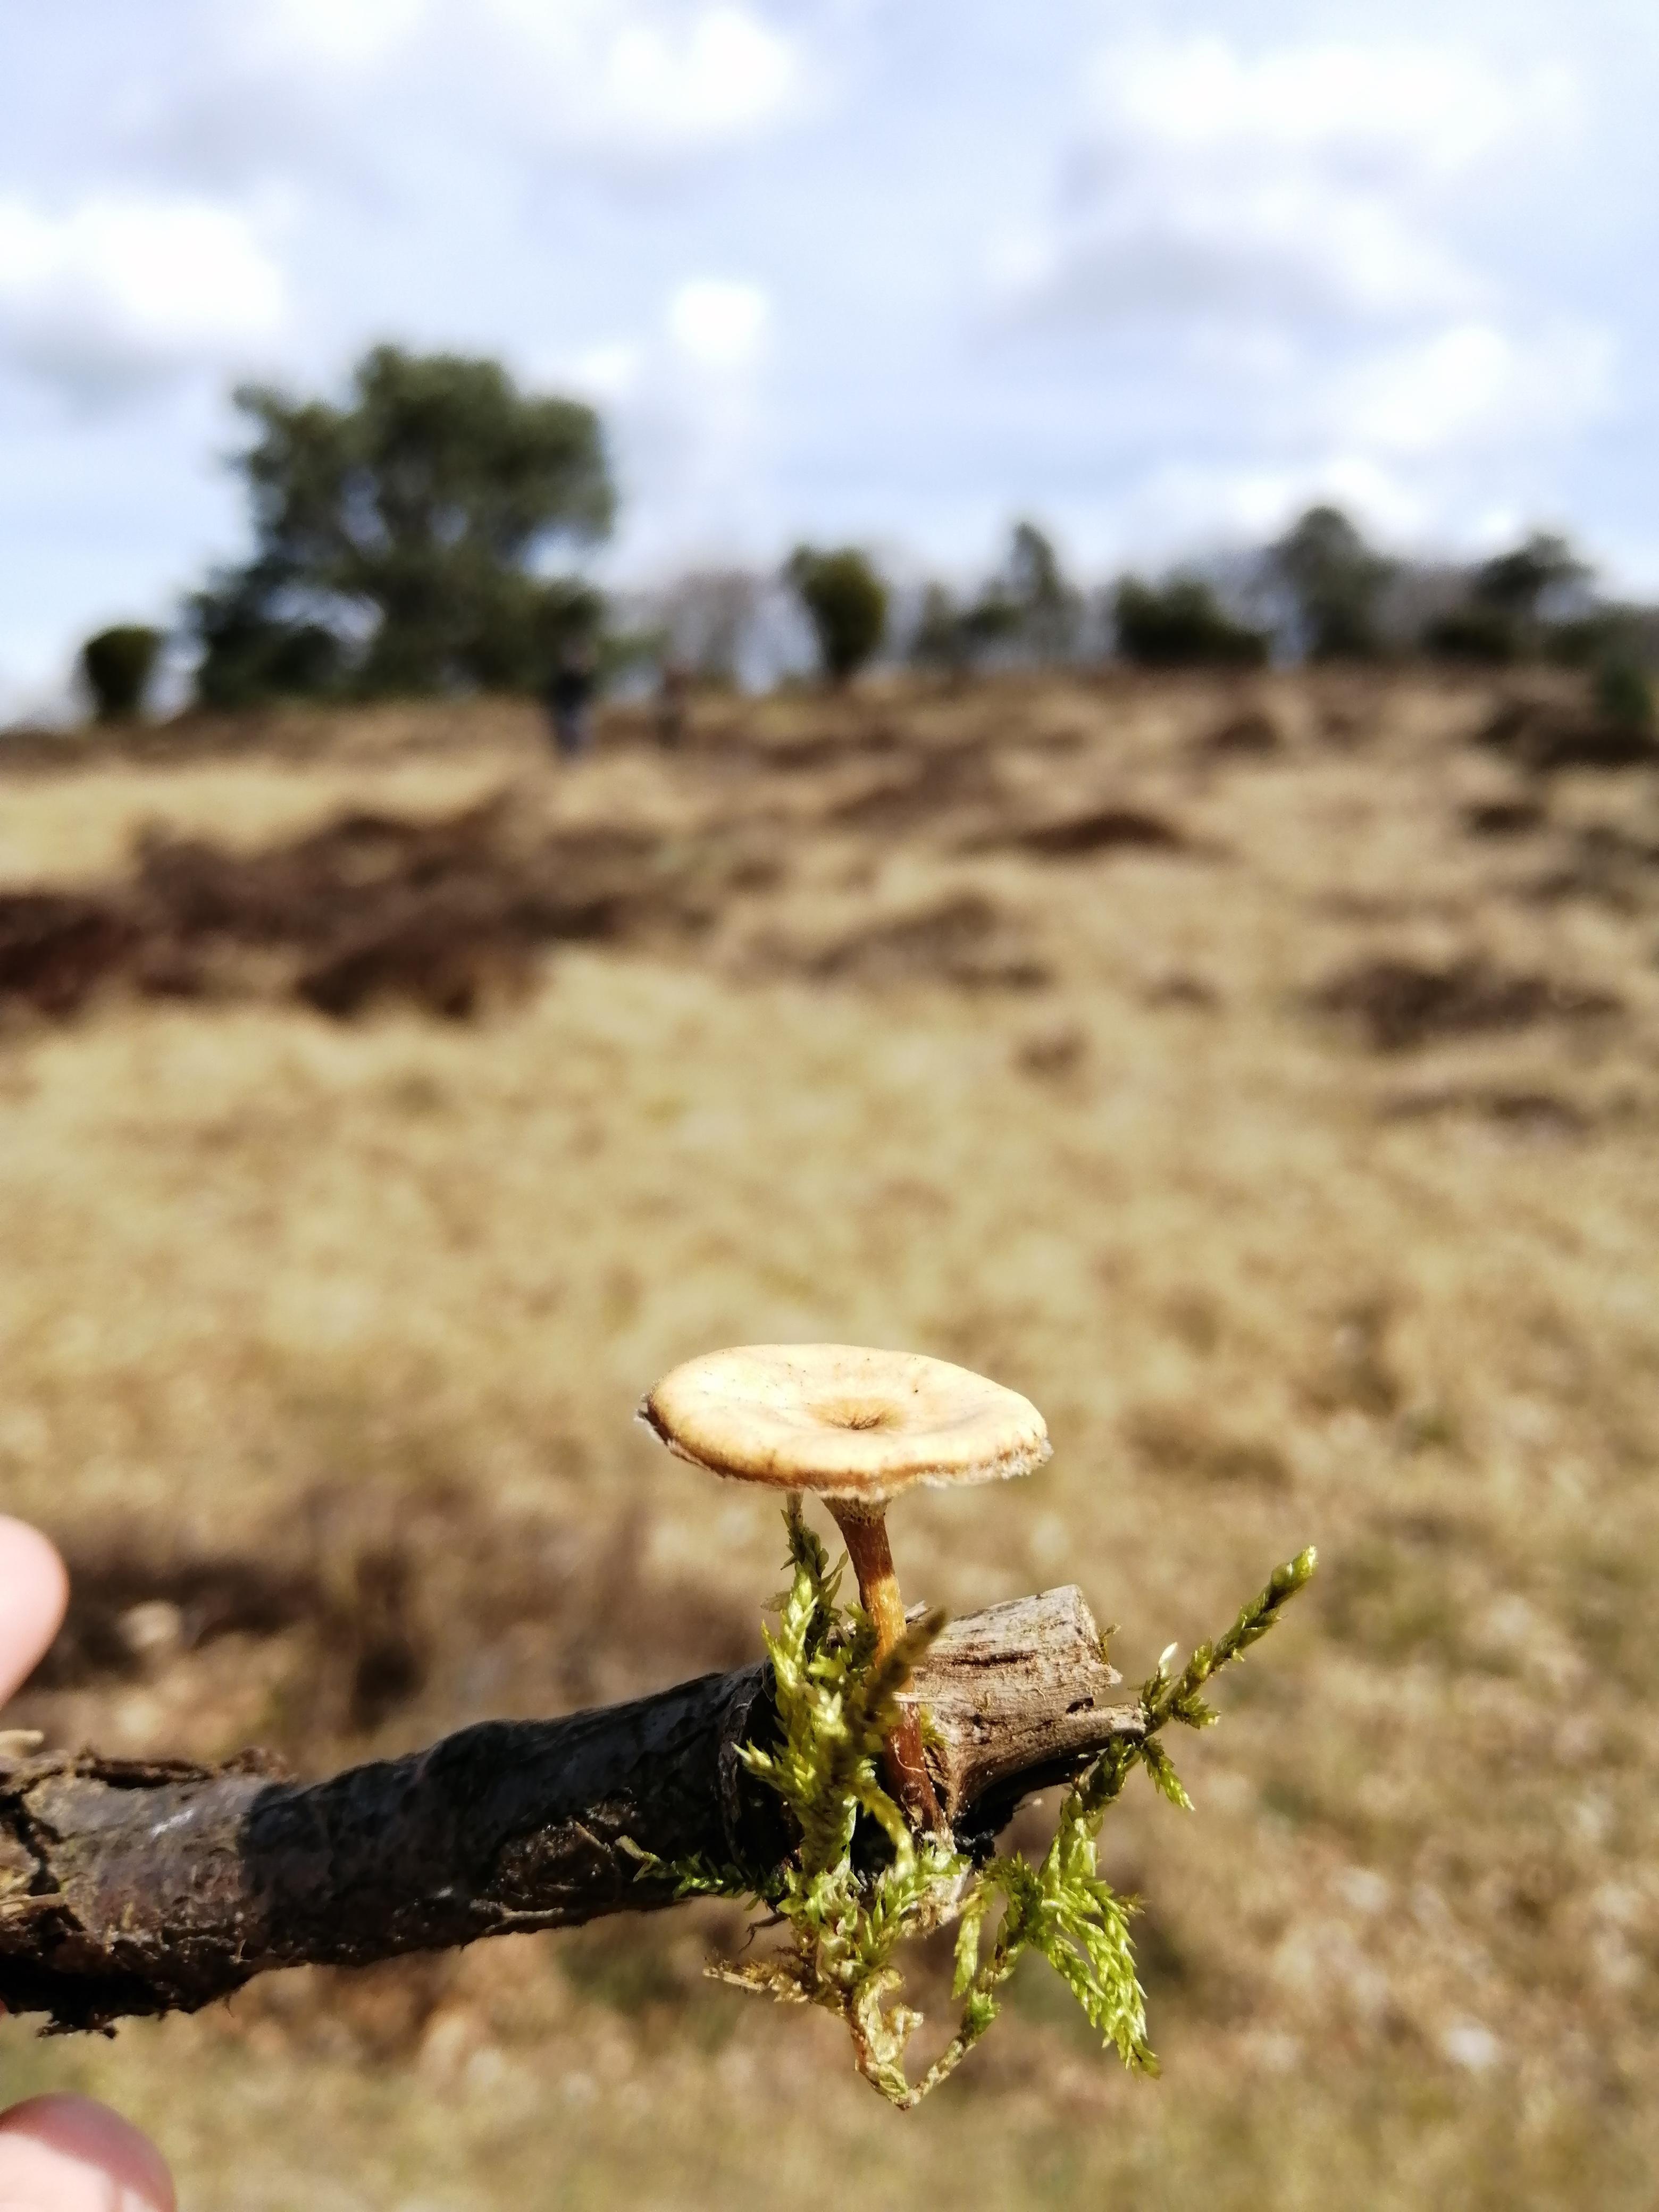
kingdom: Fungi
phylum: Basidiomycota
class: Agaricomycetes
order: Polyporales
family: Polyporaceae
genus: Lentinus
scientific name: Lentinus
